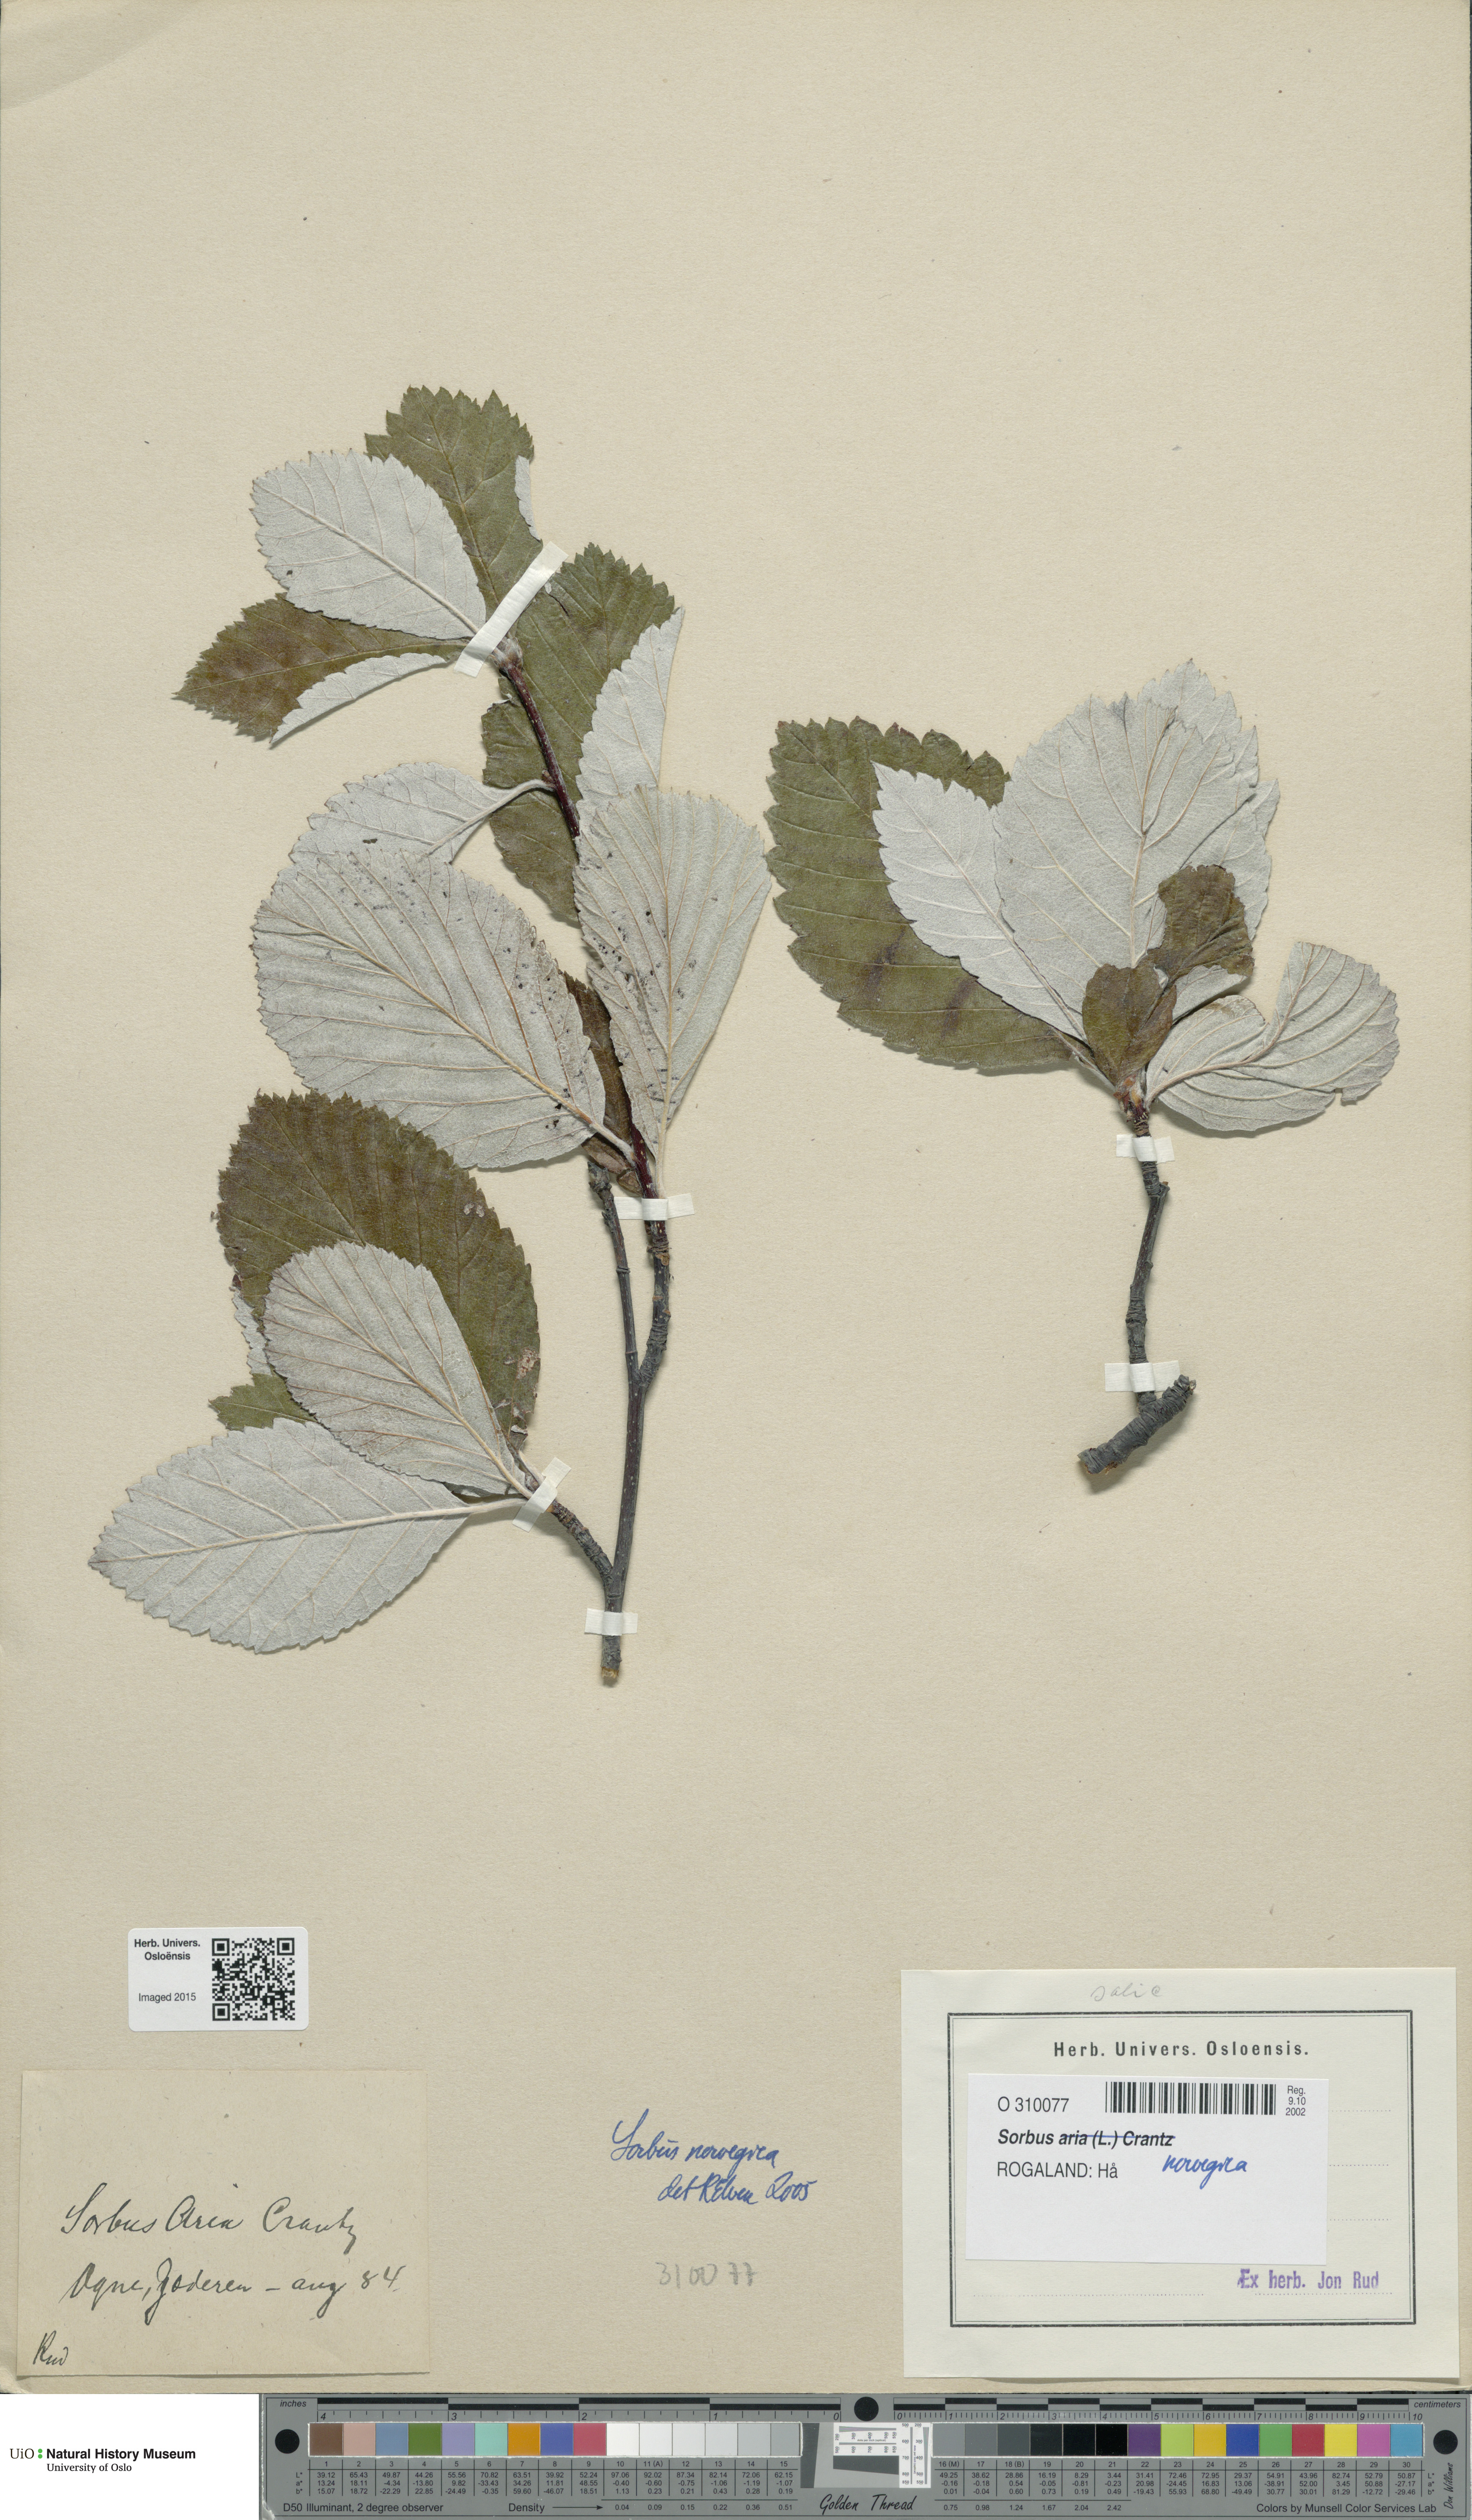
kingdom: Plantae
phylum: Tracheophyta
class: Magnoliopsida
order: Rosales
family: Rosaceae
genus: Aria
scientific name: Aria obtusifolia
